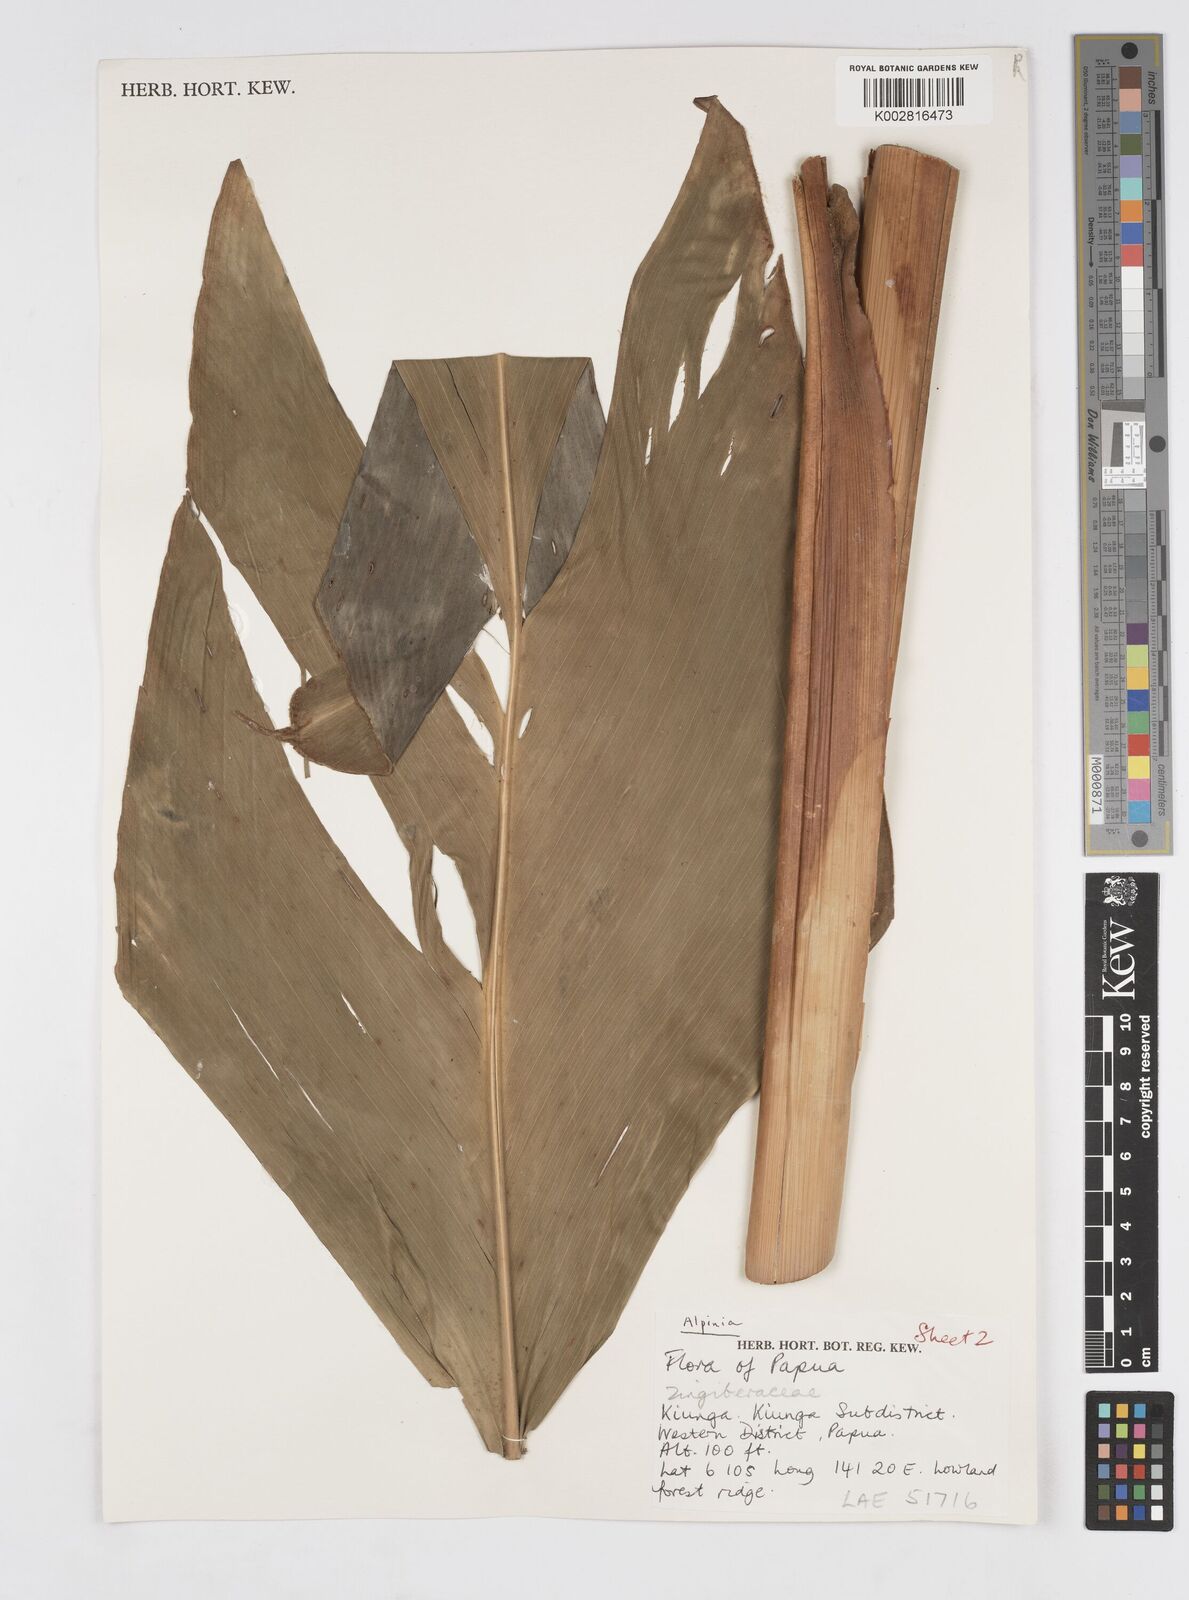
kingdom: Plantae
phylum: Tracheophyta
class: Liliopsida
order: Zingiberales
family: Zingiberaceae
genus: Alpinia
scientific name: Alpinia
